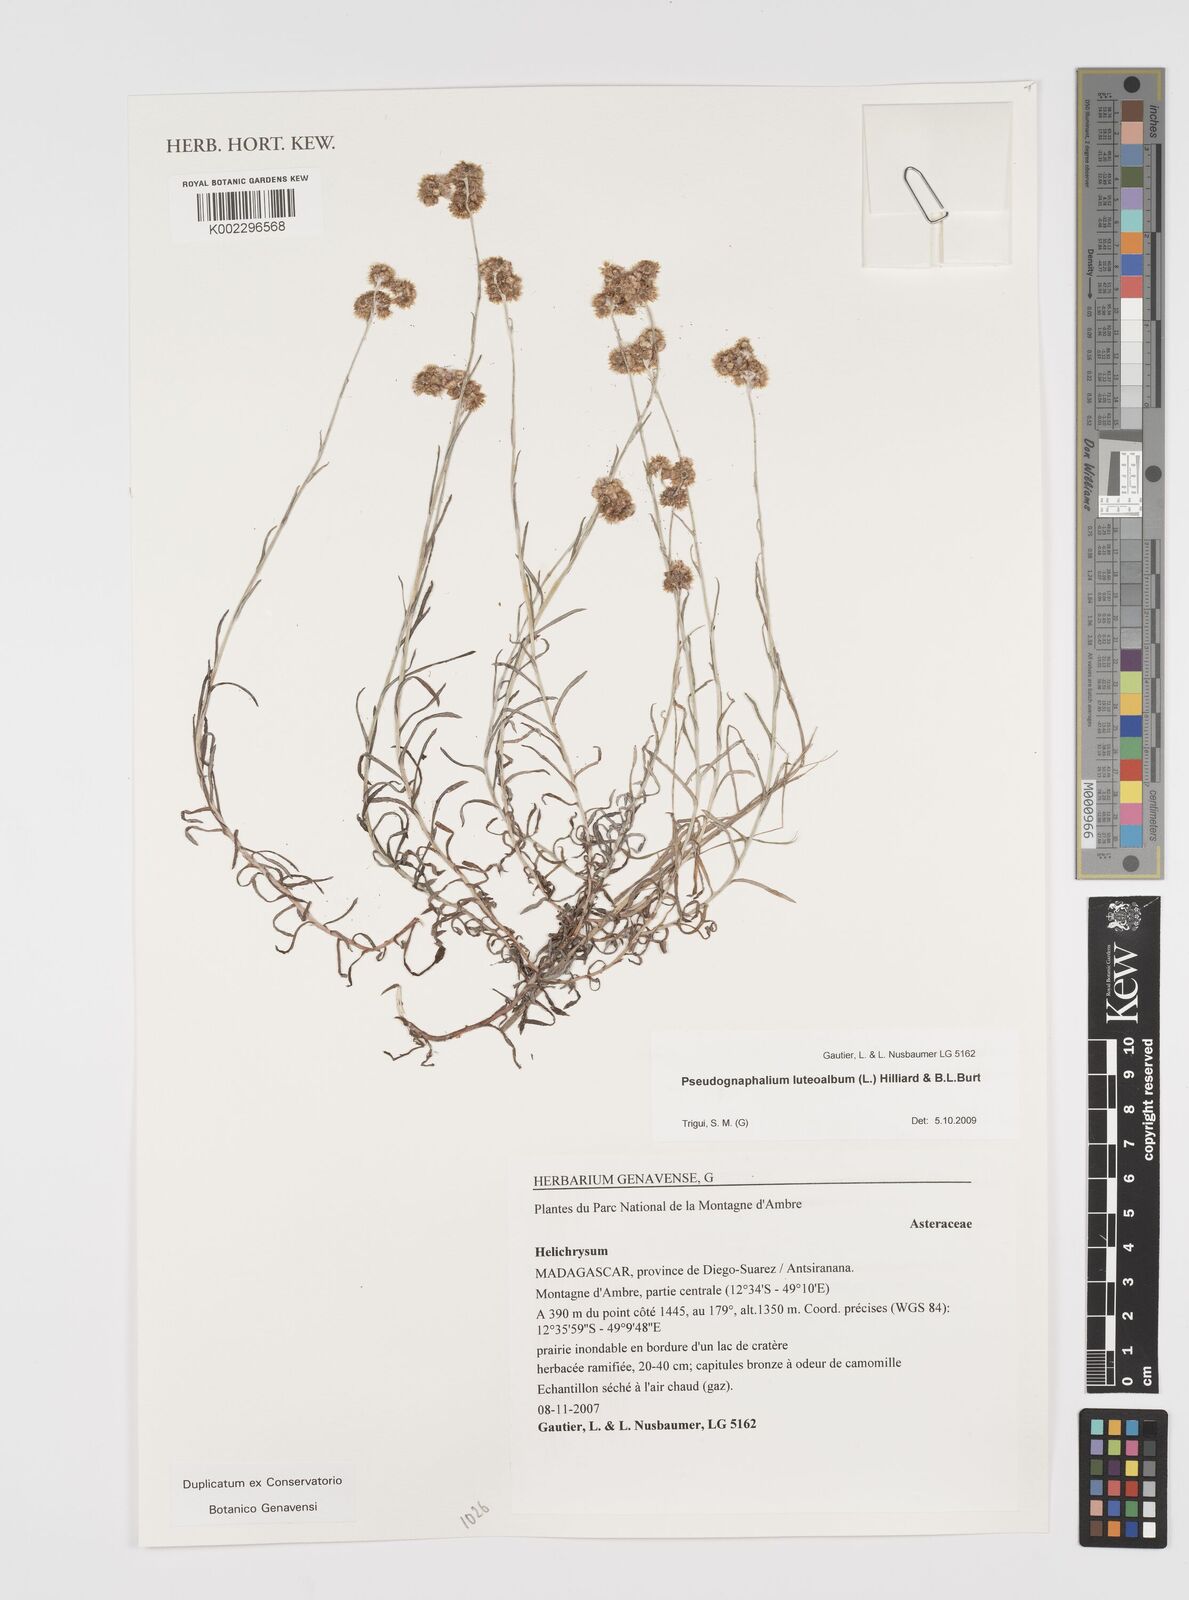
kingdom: Plantae
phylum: Tracheophyta
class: Magnoliopsida
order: Asterales
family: Asteraceae
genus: Helichrysum
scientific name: Helichrysum luteoalbum
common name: Daisy
